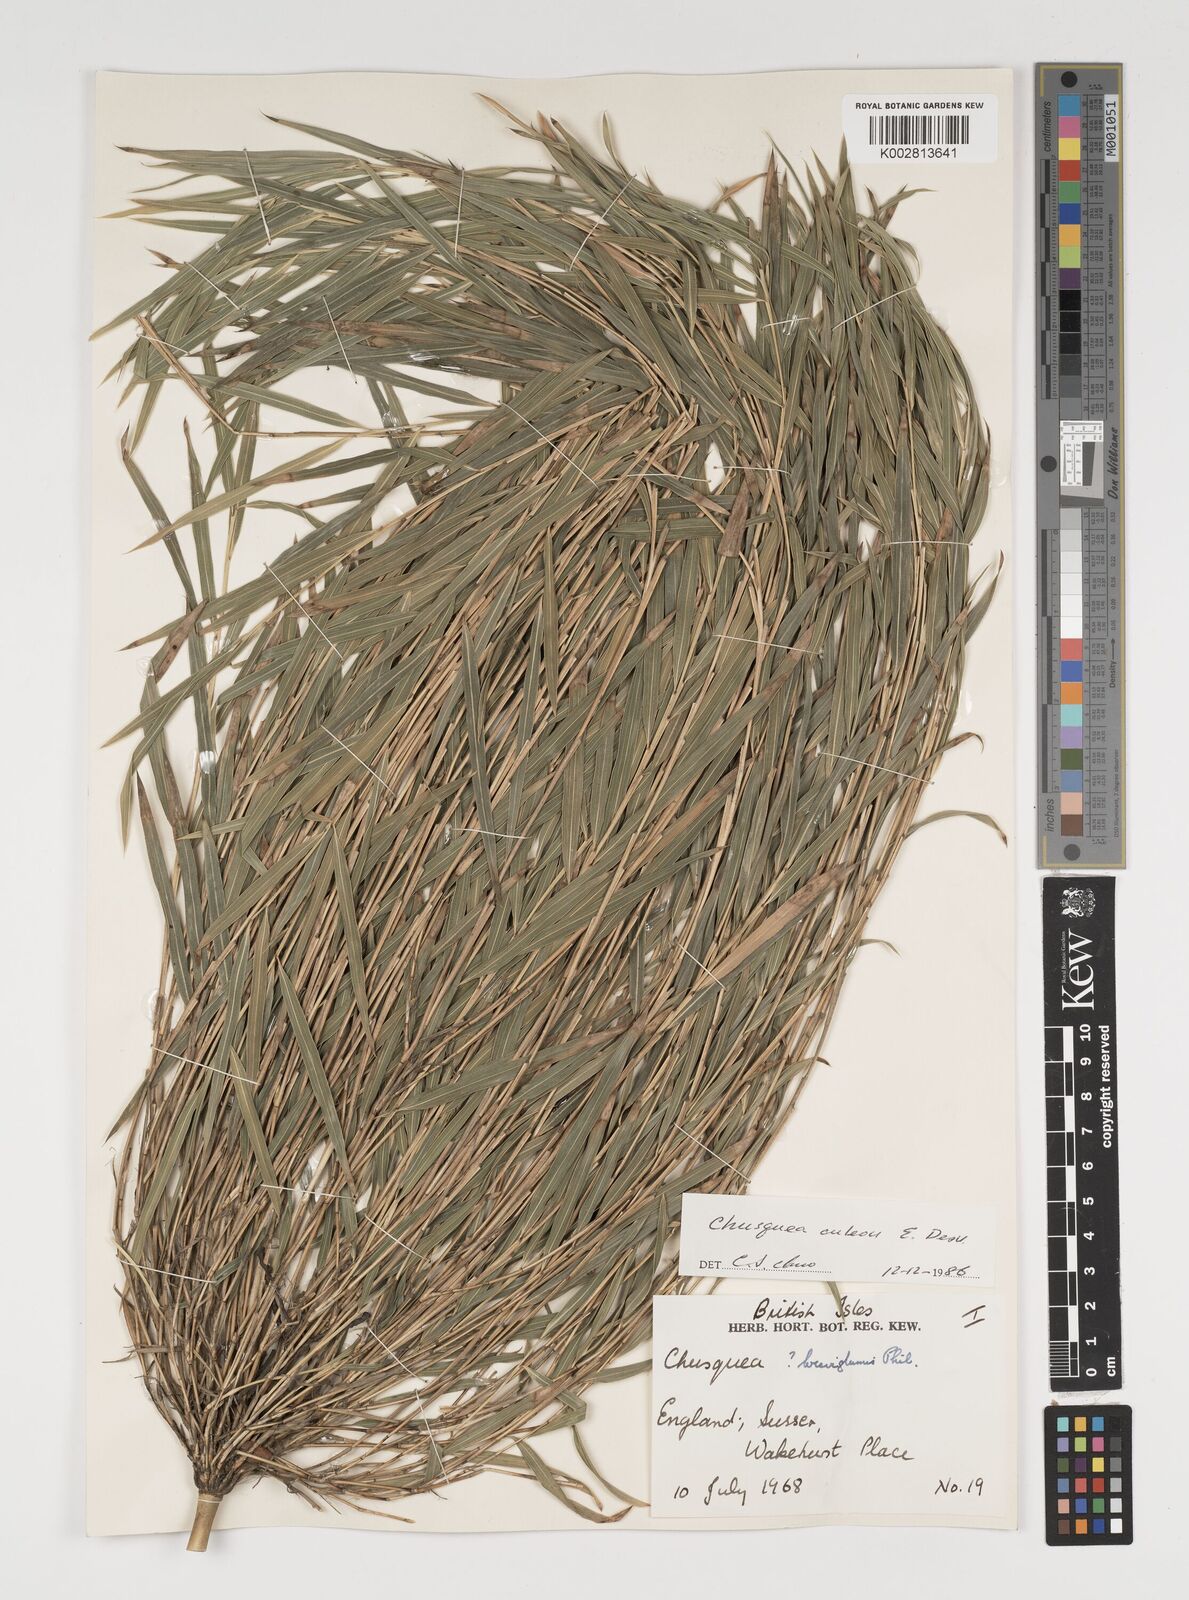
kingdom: Plantae
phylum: Tracheophyta
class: Liliopsida
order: Poales
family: Poaceae
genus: Chusquea
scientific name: Chusquea andina
